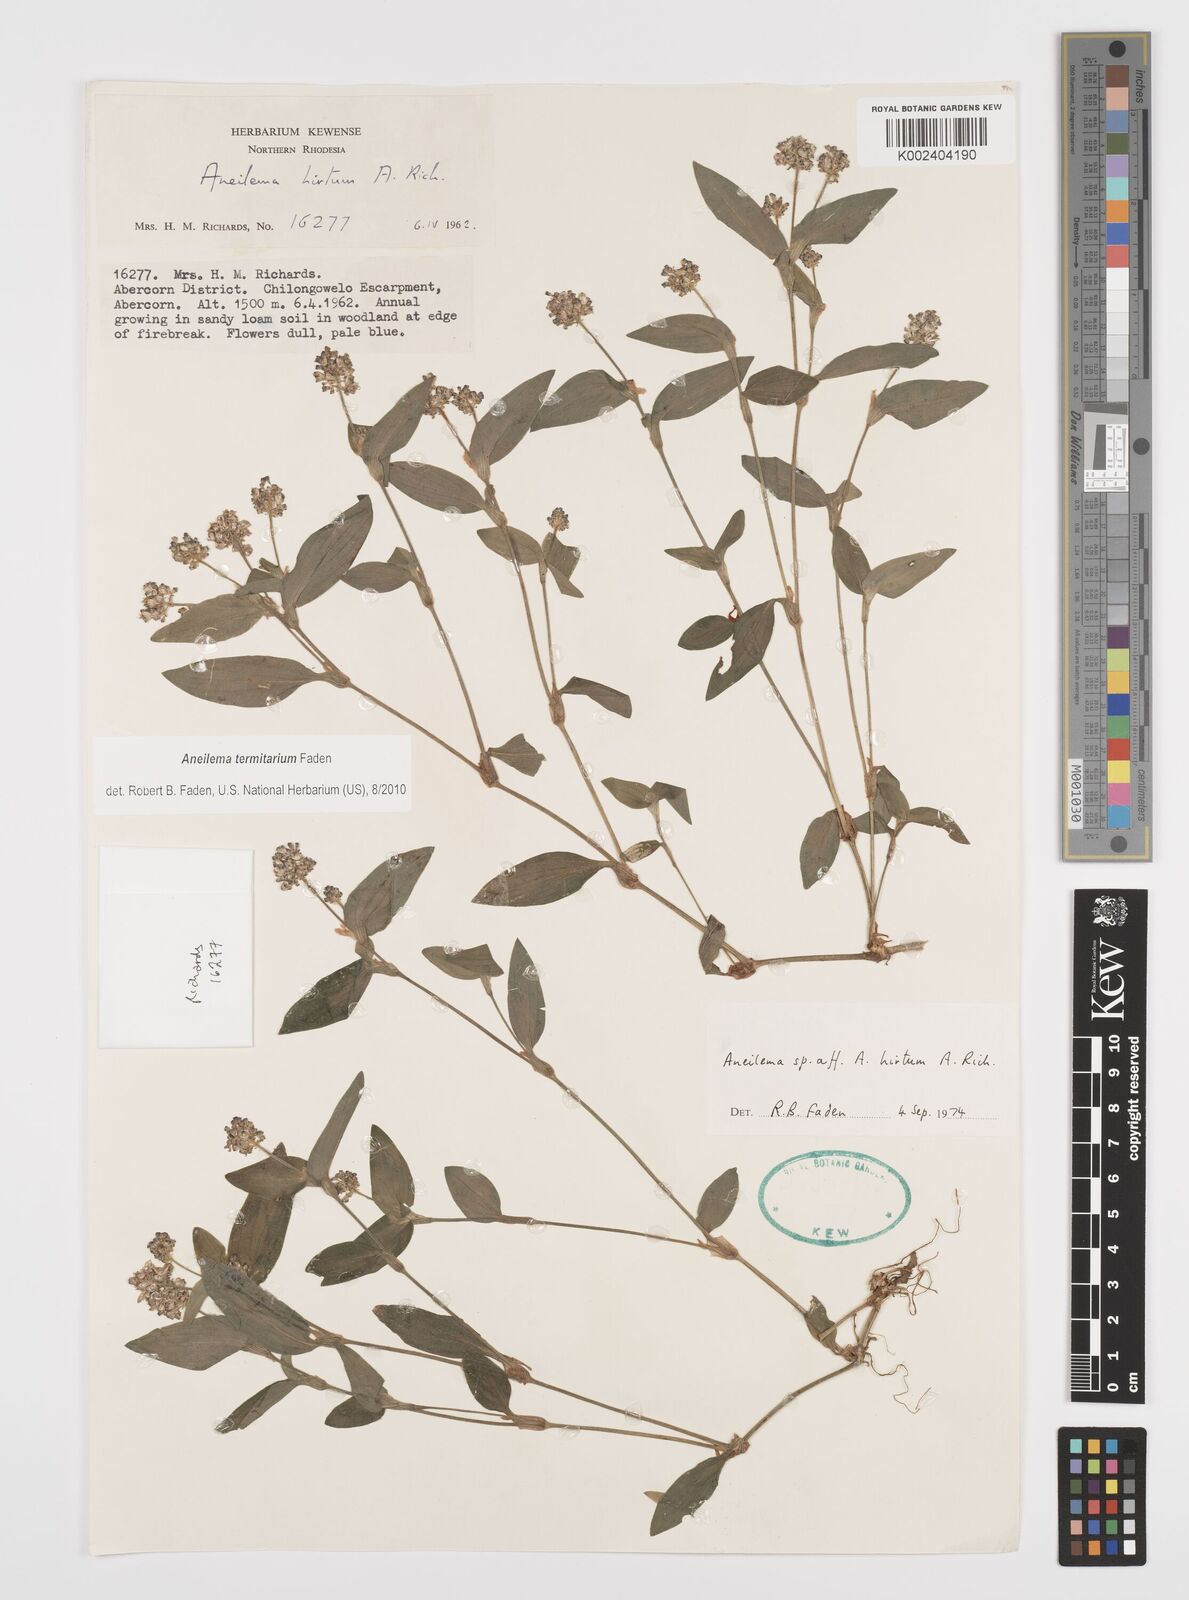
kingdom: Plantae
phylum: Tracheophyta
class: Liliopsida
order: Commelinales
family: Commelinaceae
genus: Aneilema
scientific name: Aneilema termitarium
